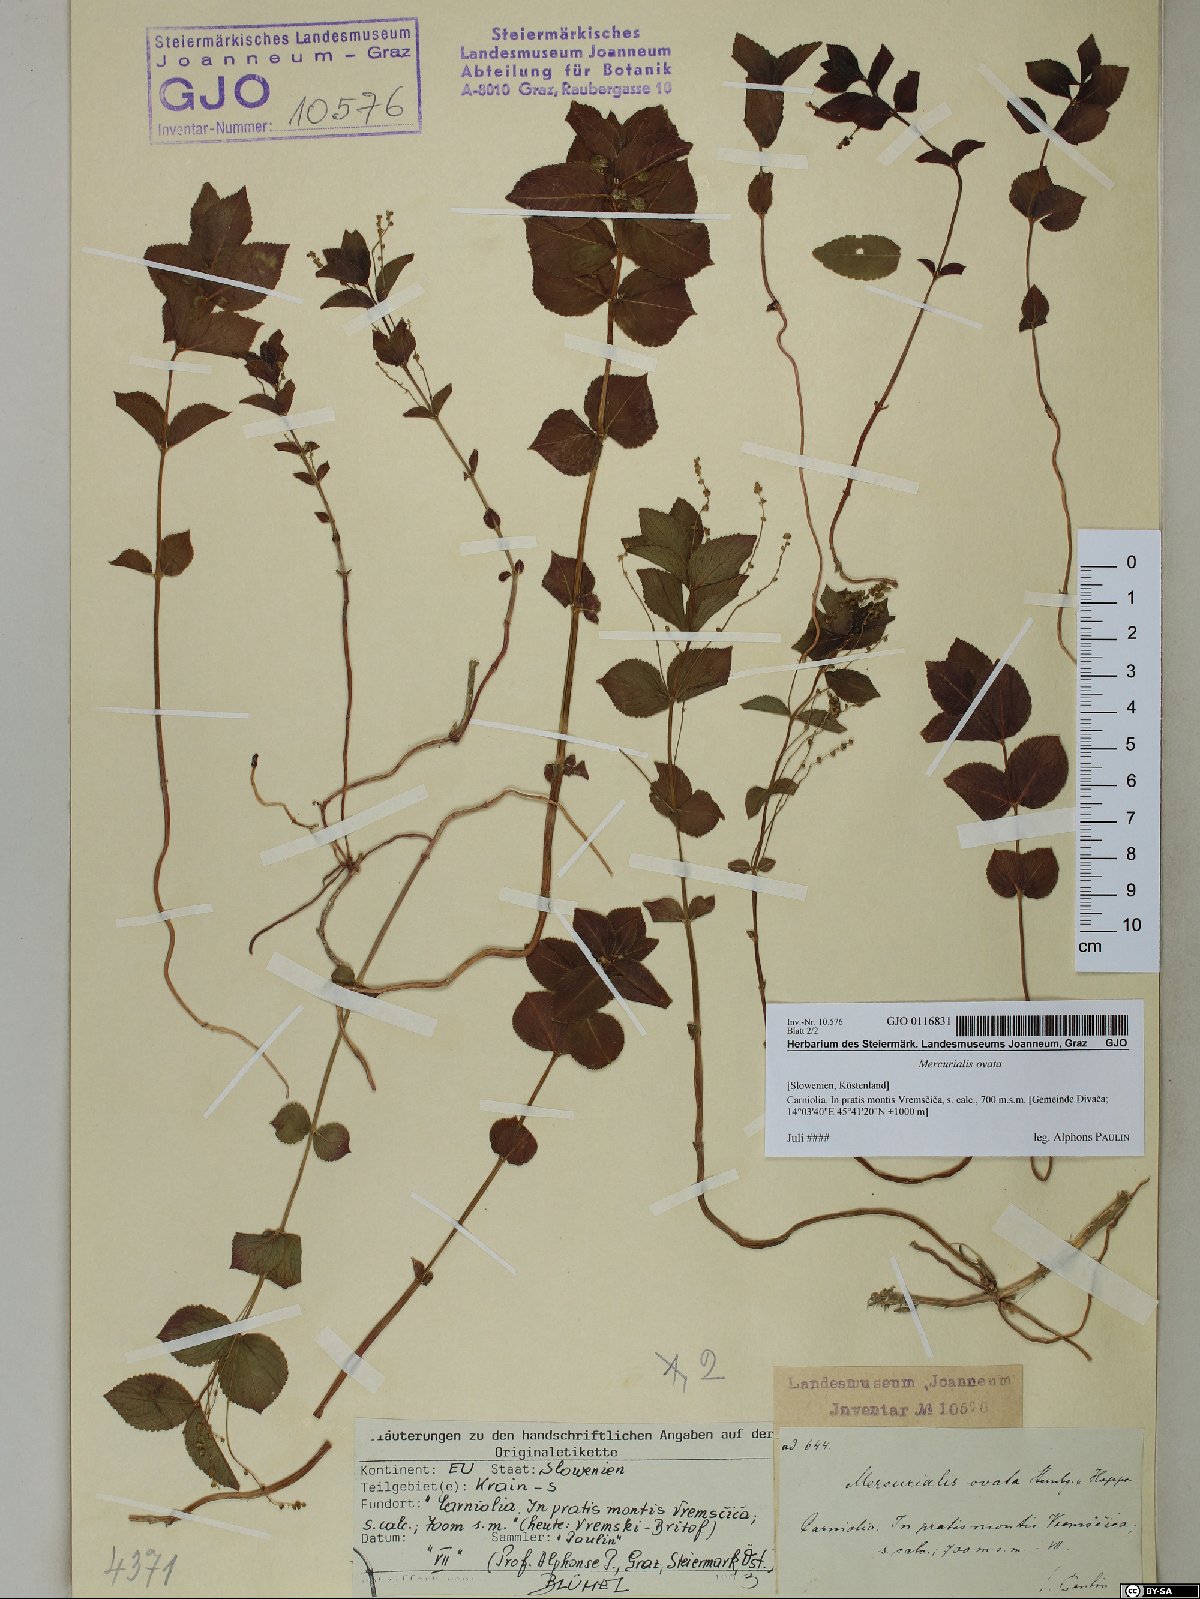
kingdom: Plantae
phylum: Tracheophyta
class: Magnoliopsida
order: Malpighiales
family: Euphorbiaceae
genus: Mercurialis
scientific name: Mercurialis ovata
